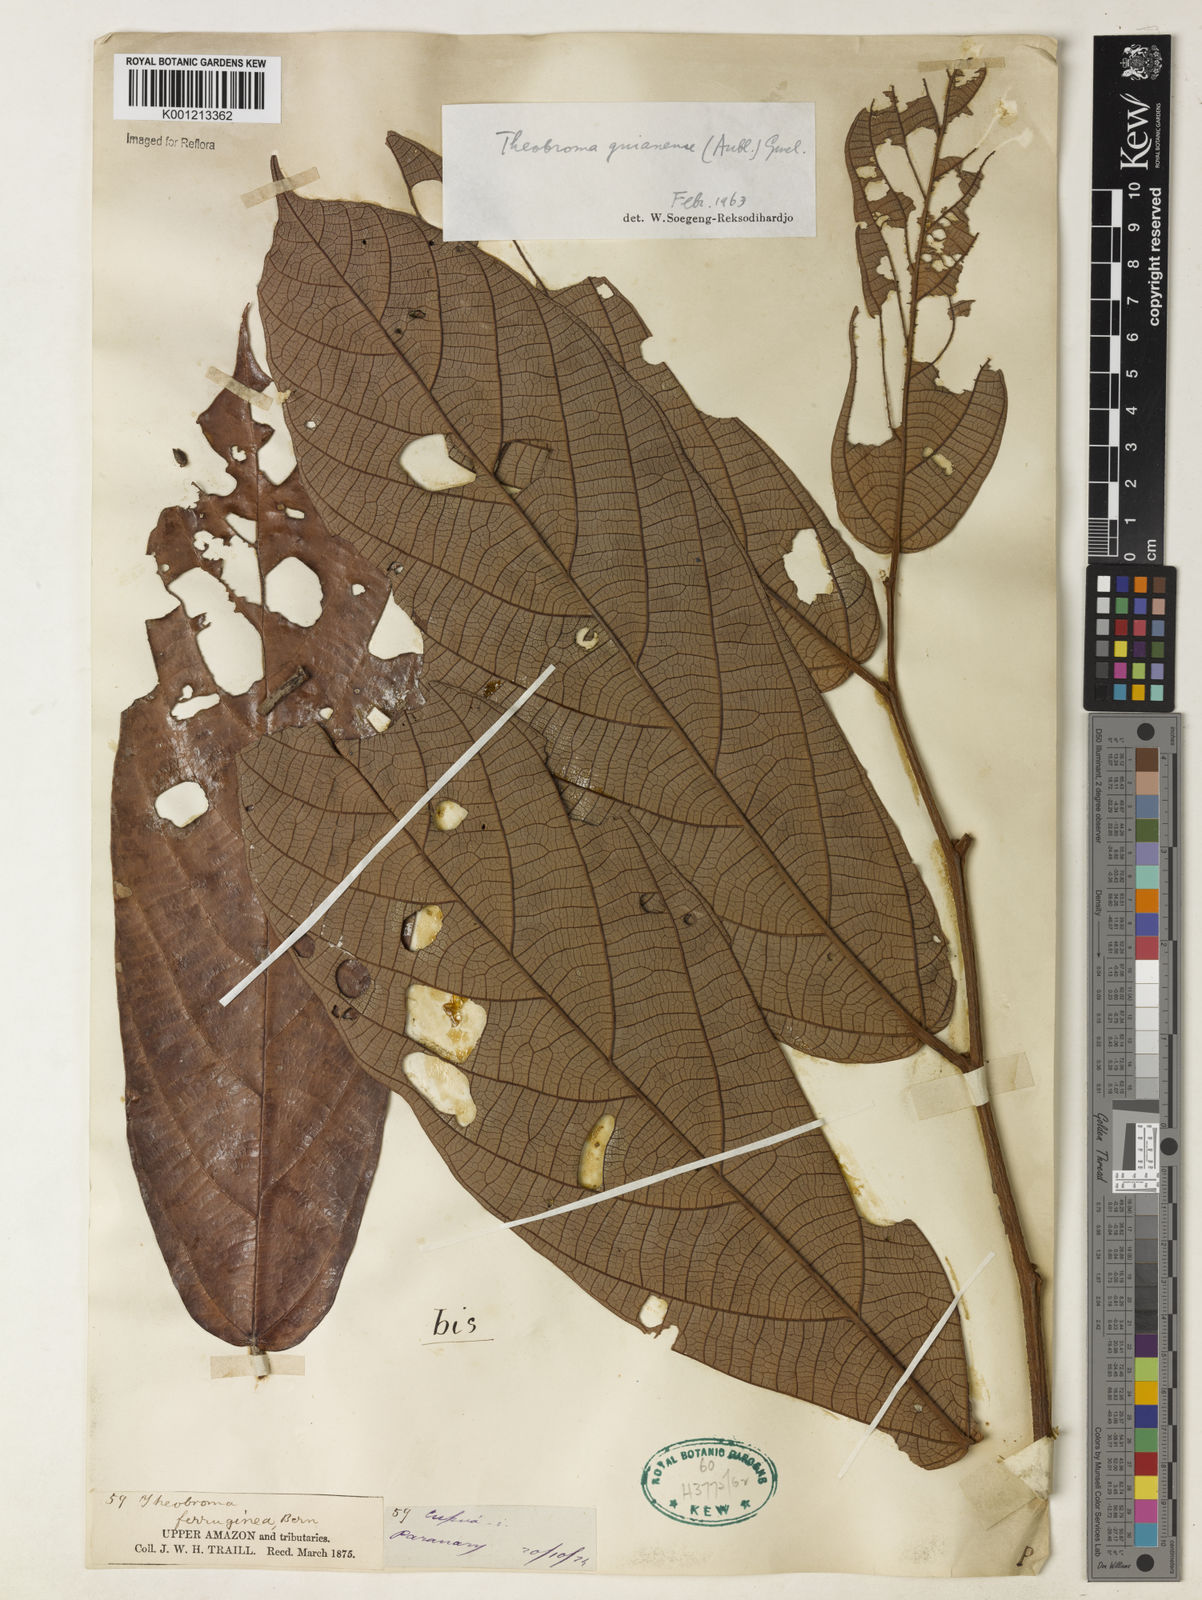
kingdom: Plantae
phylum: Tracheophyta
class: Magnoliopsida
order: Malvales
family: Malvaceae
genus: Theobroma
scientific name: Theobroma subincanum
